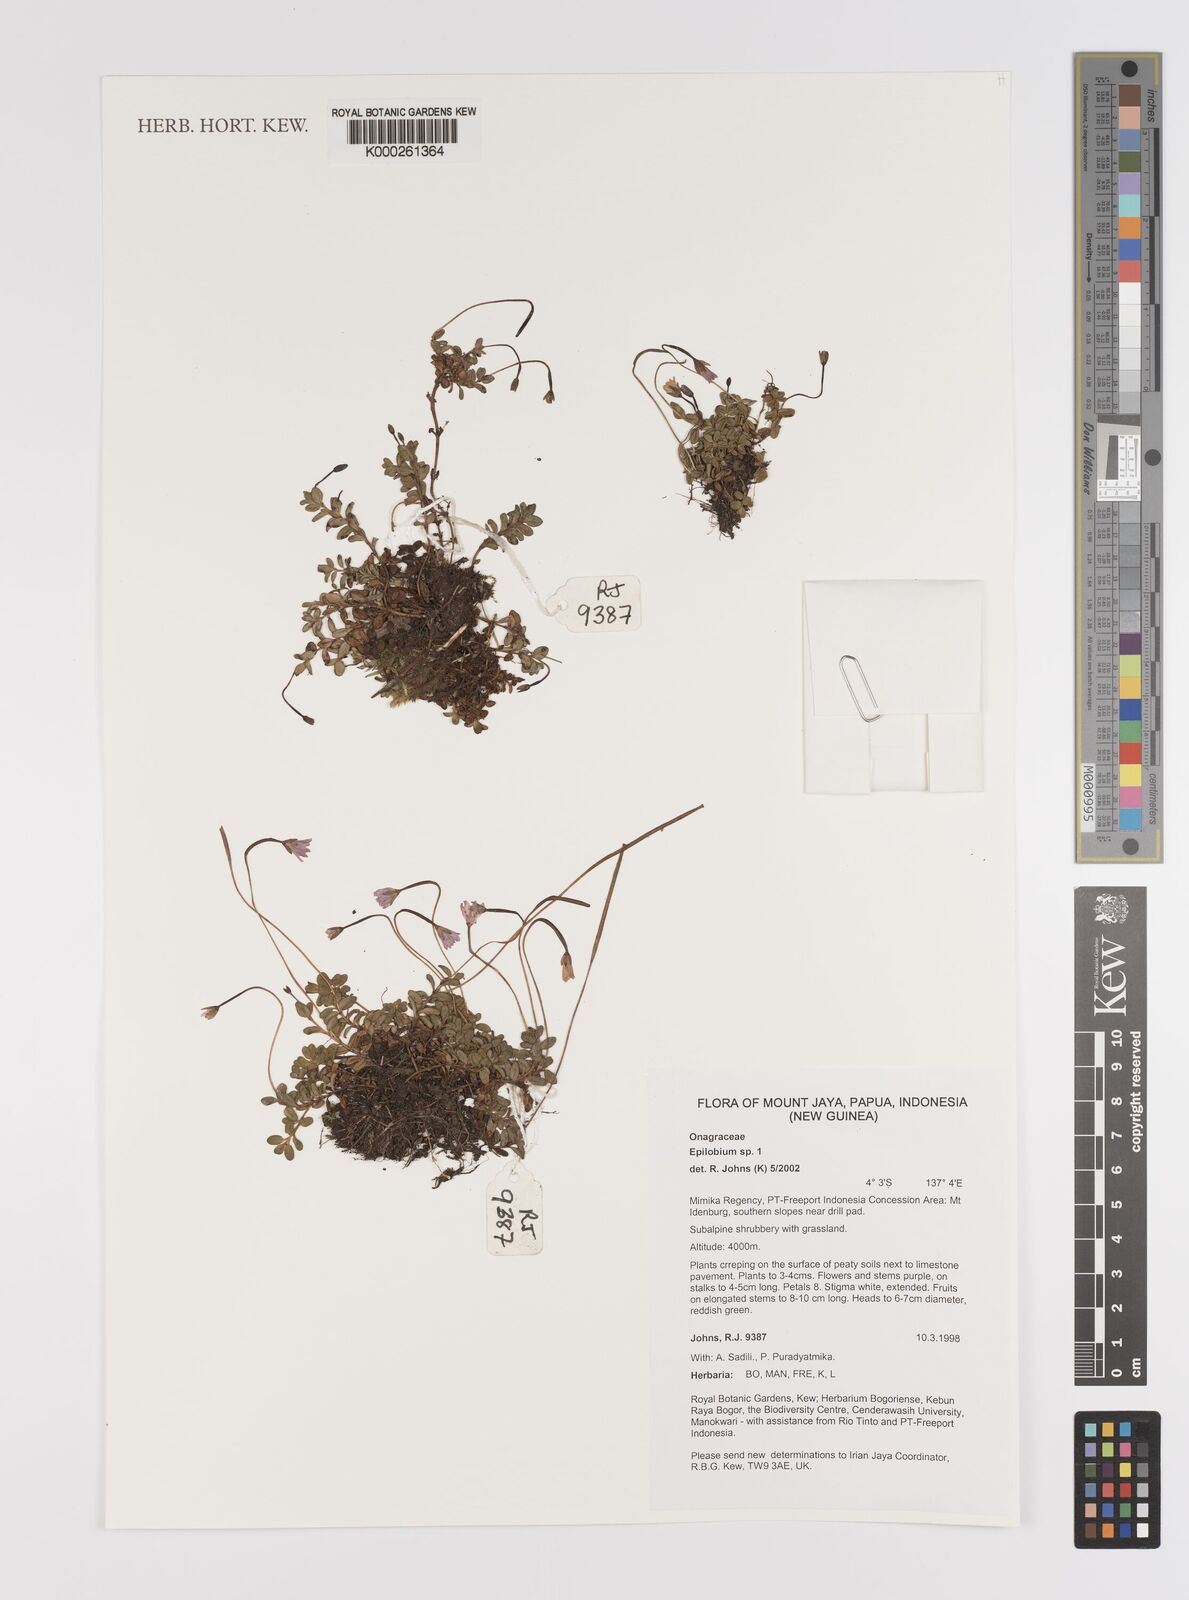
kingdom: Plantae
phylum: Tracheophyta
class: Magnoliopsida
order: Myrtales
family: Onagraceae
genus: Epilobium
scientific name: Epilobium
